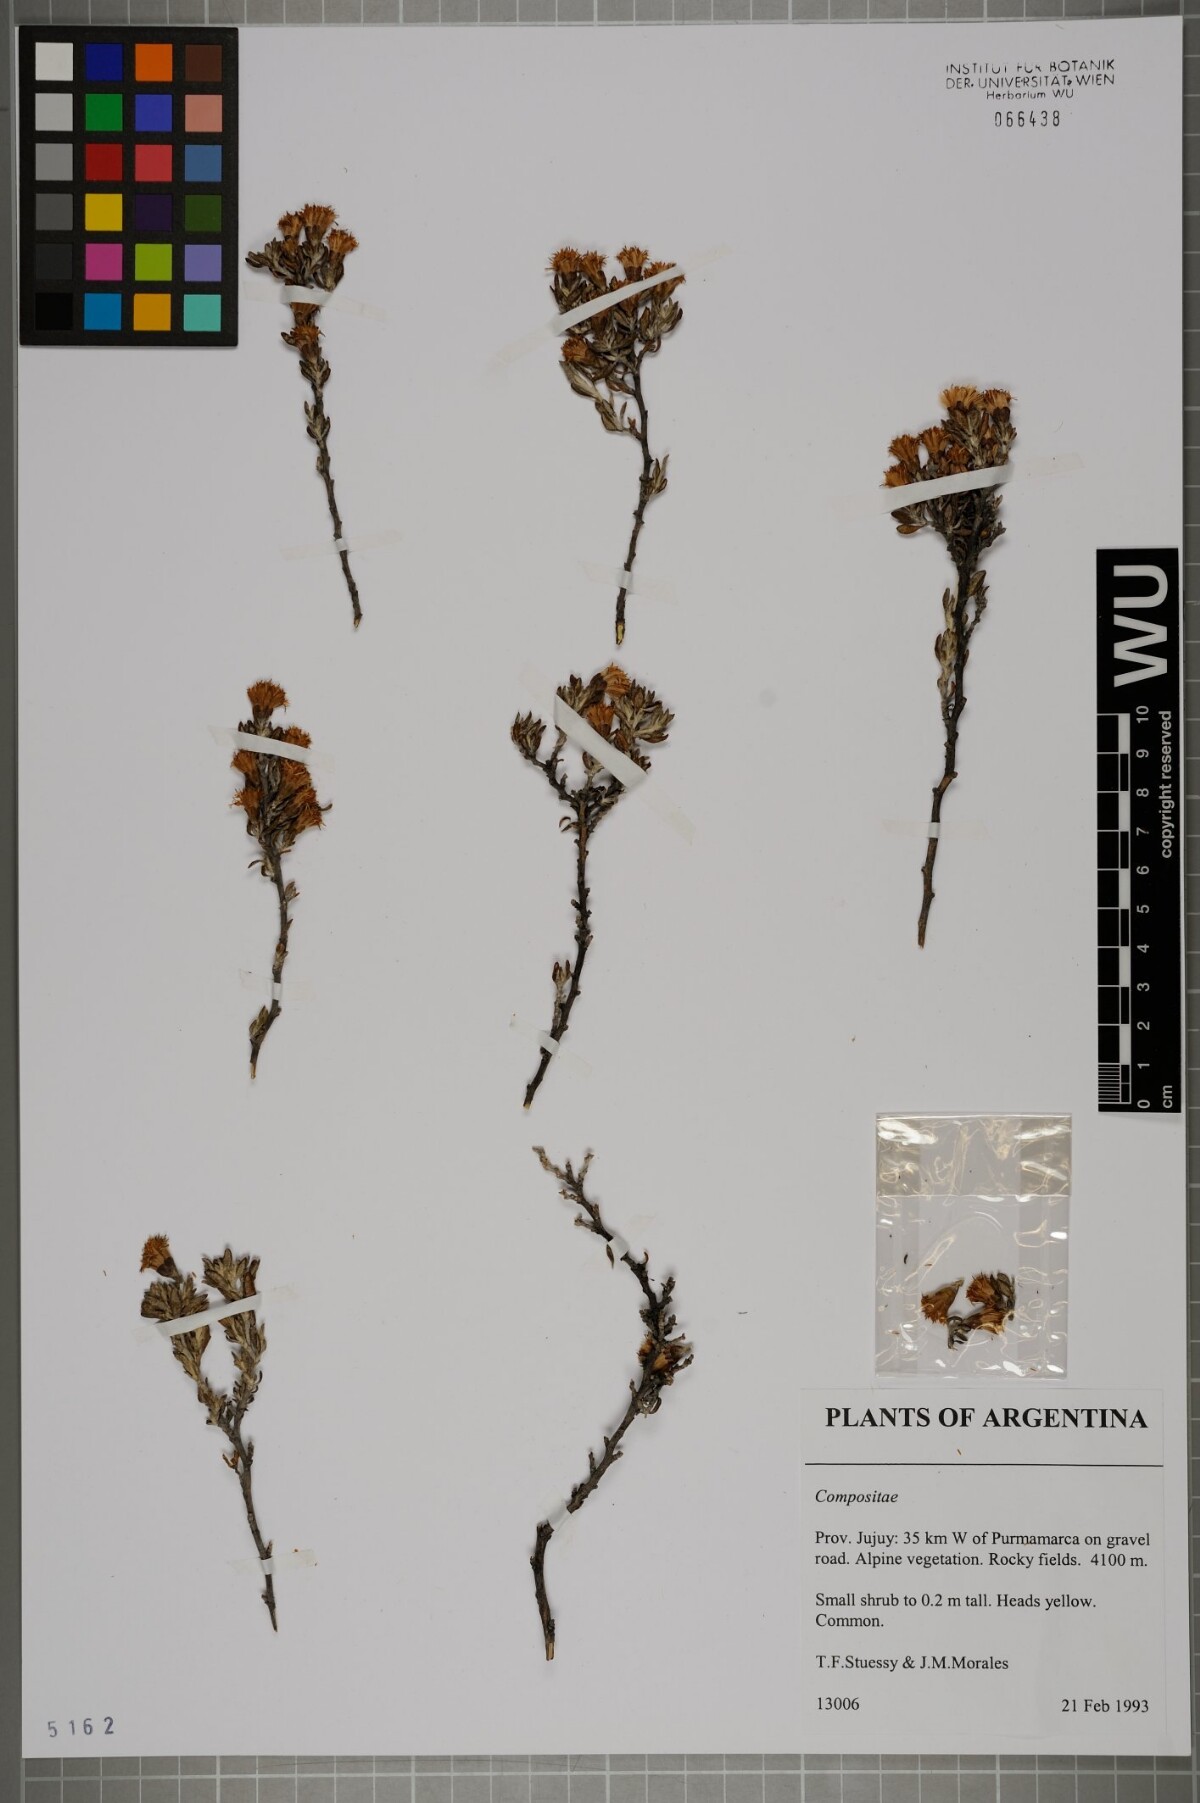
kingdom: Plantae
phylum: Tracheophyta
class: Magnoliopsida
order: Asterales
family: Asteraceae
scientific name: Asteraceae
